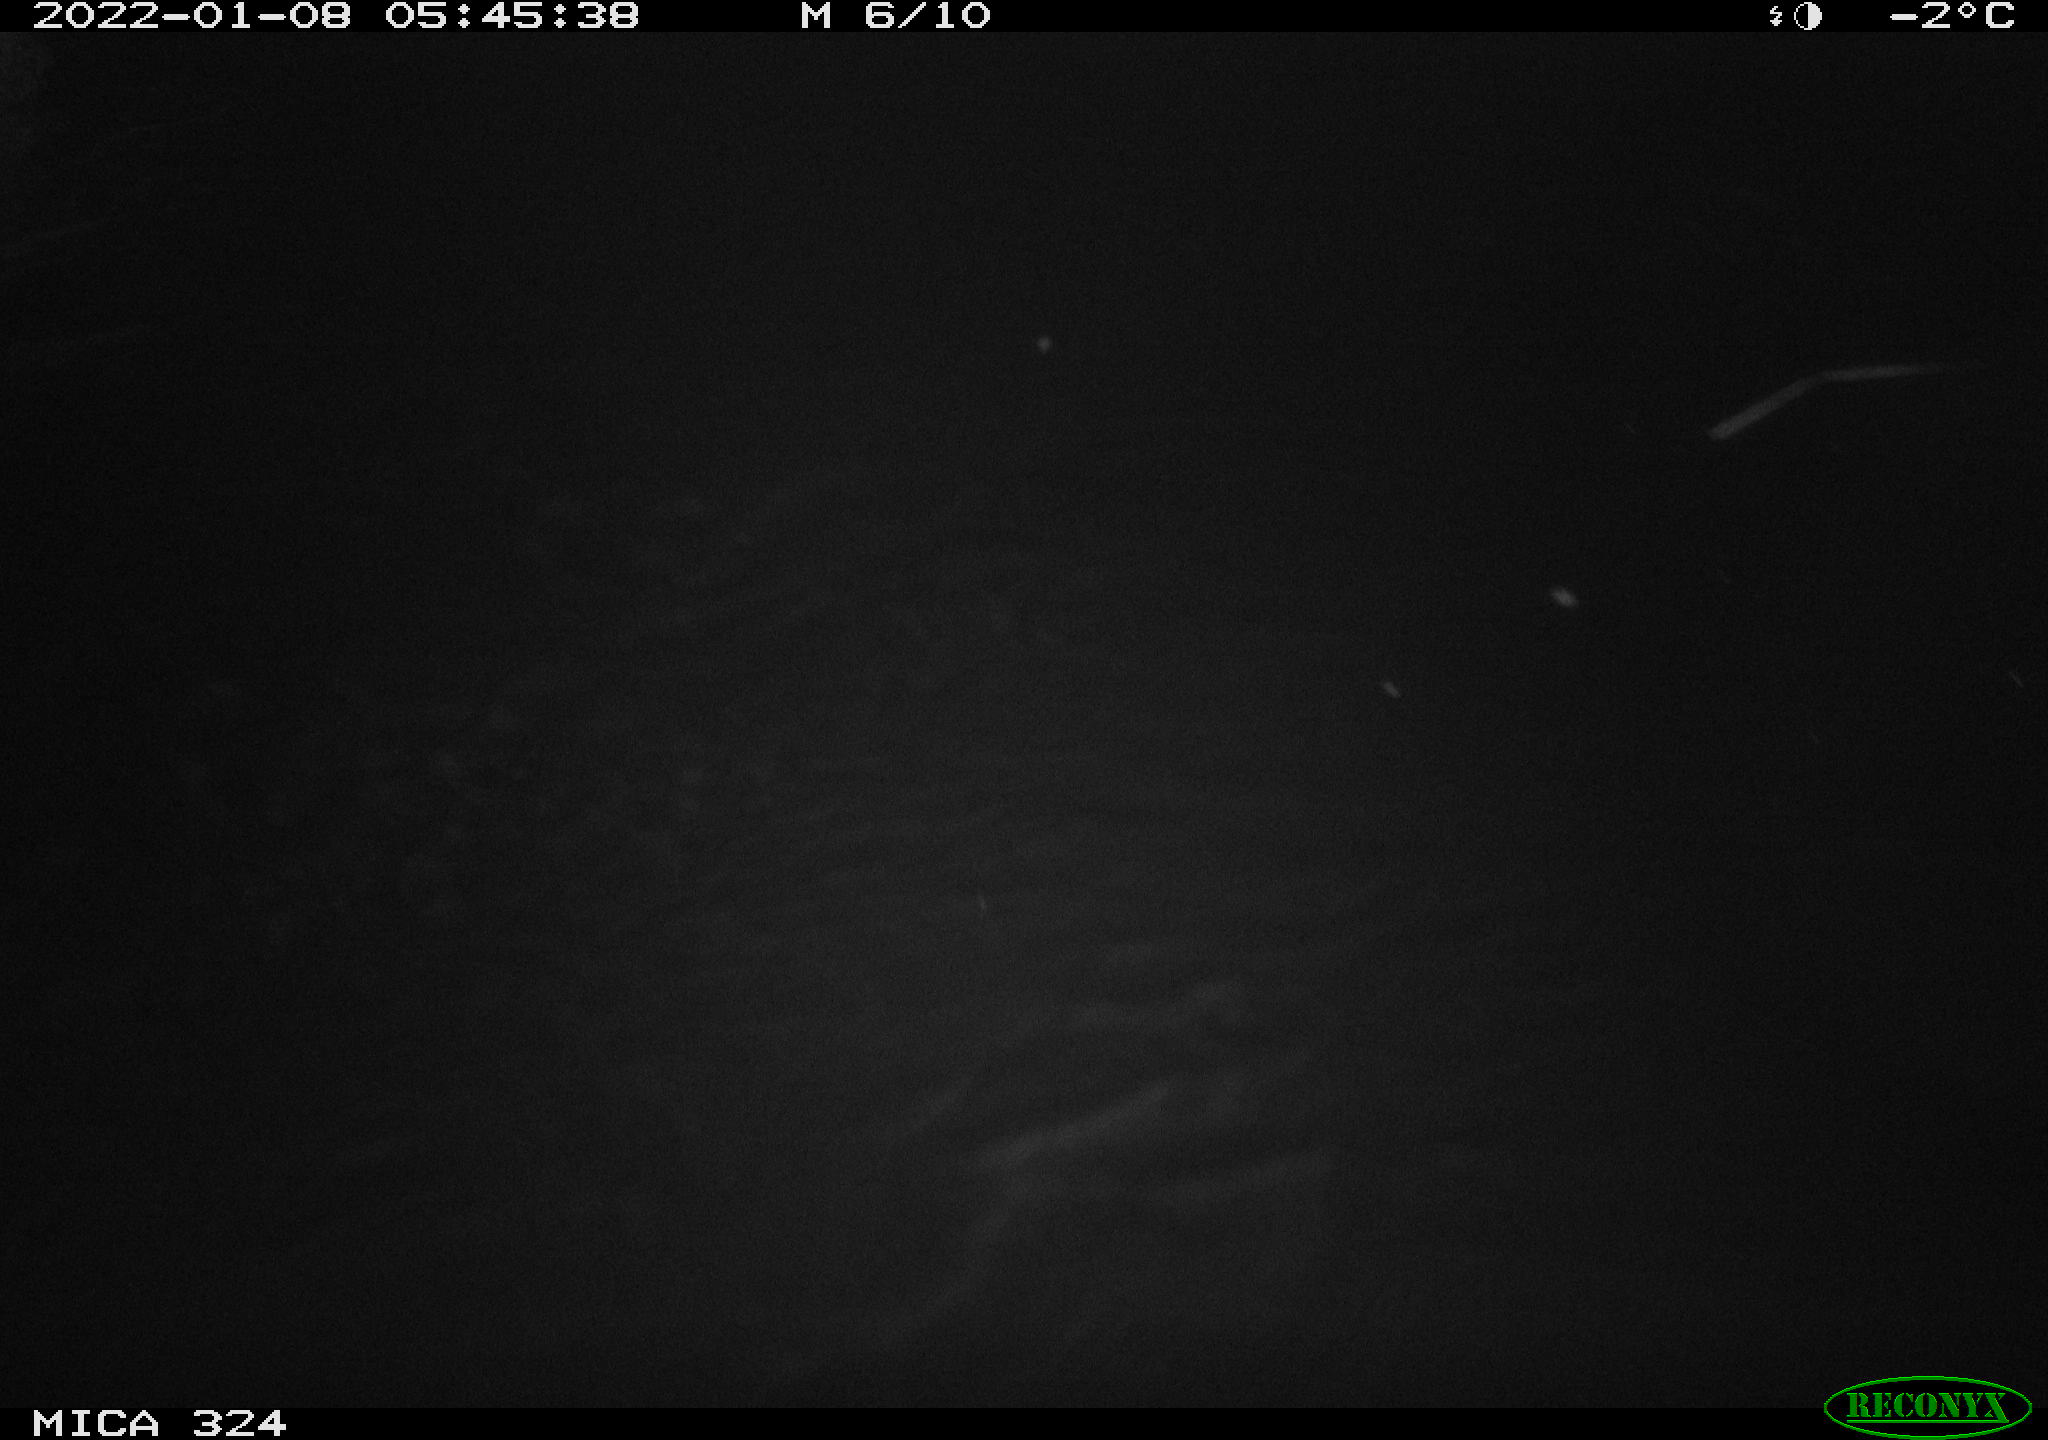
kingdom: Animalia
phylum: Chordata
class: Mammalia
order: Rodentia
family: Cricetidae
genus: Ondatra
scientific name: Ondatra zibethicus
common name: Muskrat
